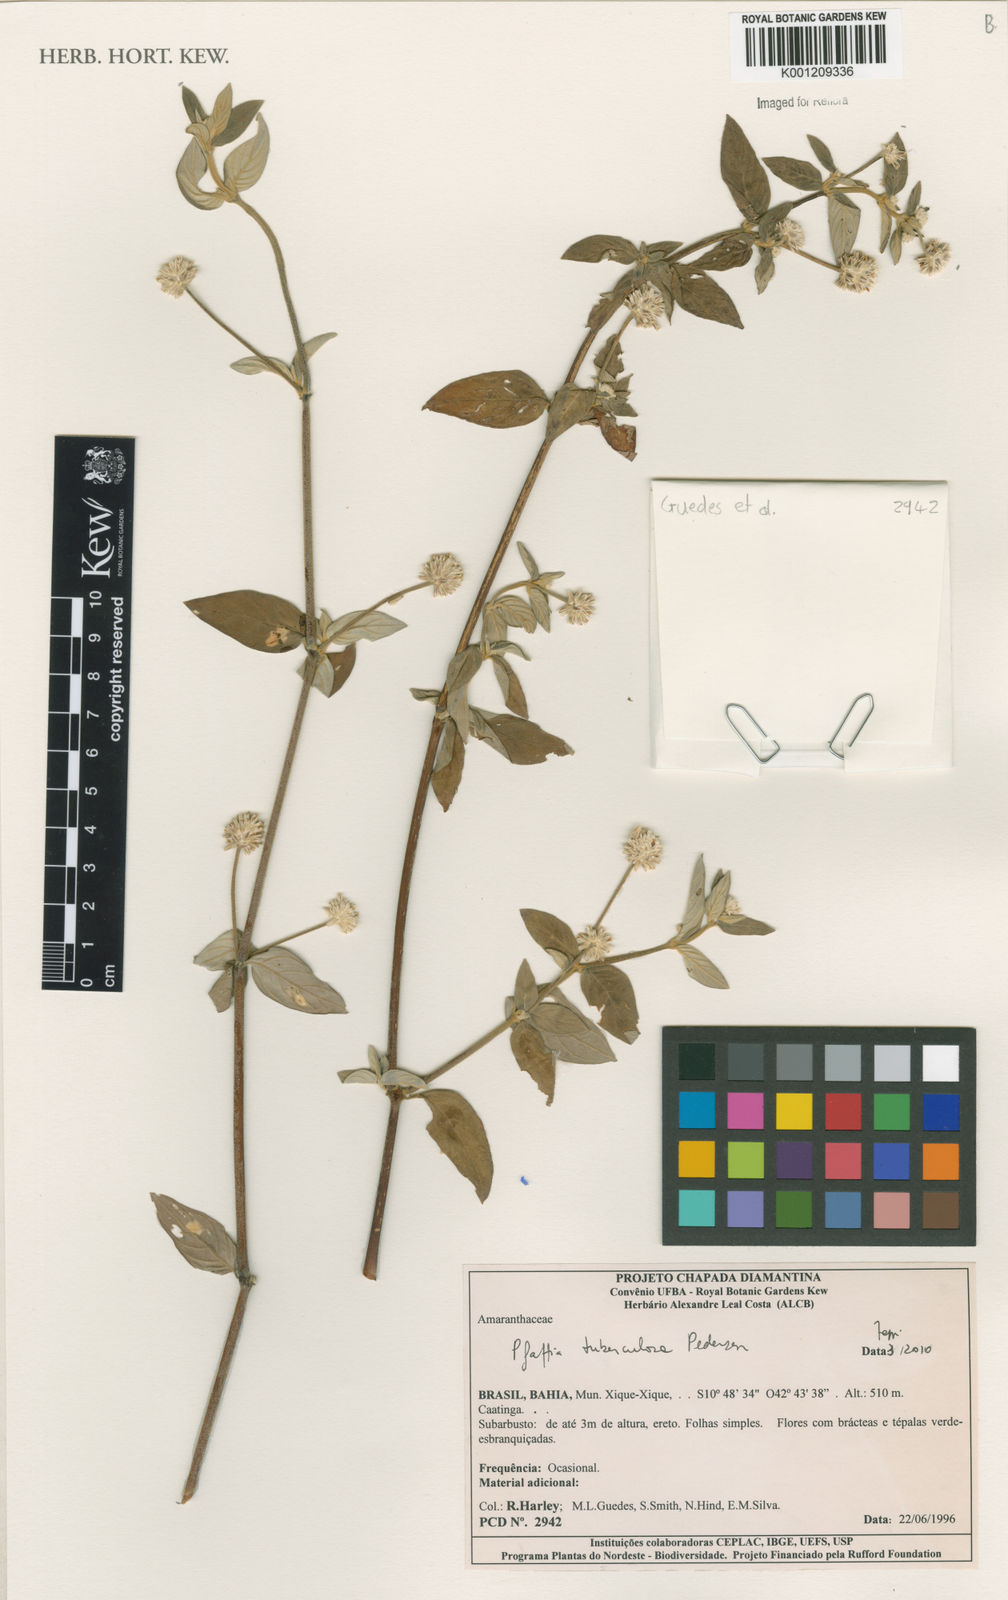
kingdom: Plantae
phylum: Tracheophyta
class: Magnoliopsida
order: Caryophyllales
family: Amaranthaceae
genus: Pfaffia
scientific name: Pfaffia tuberculosa
